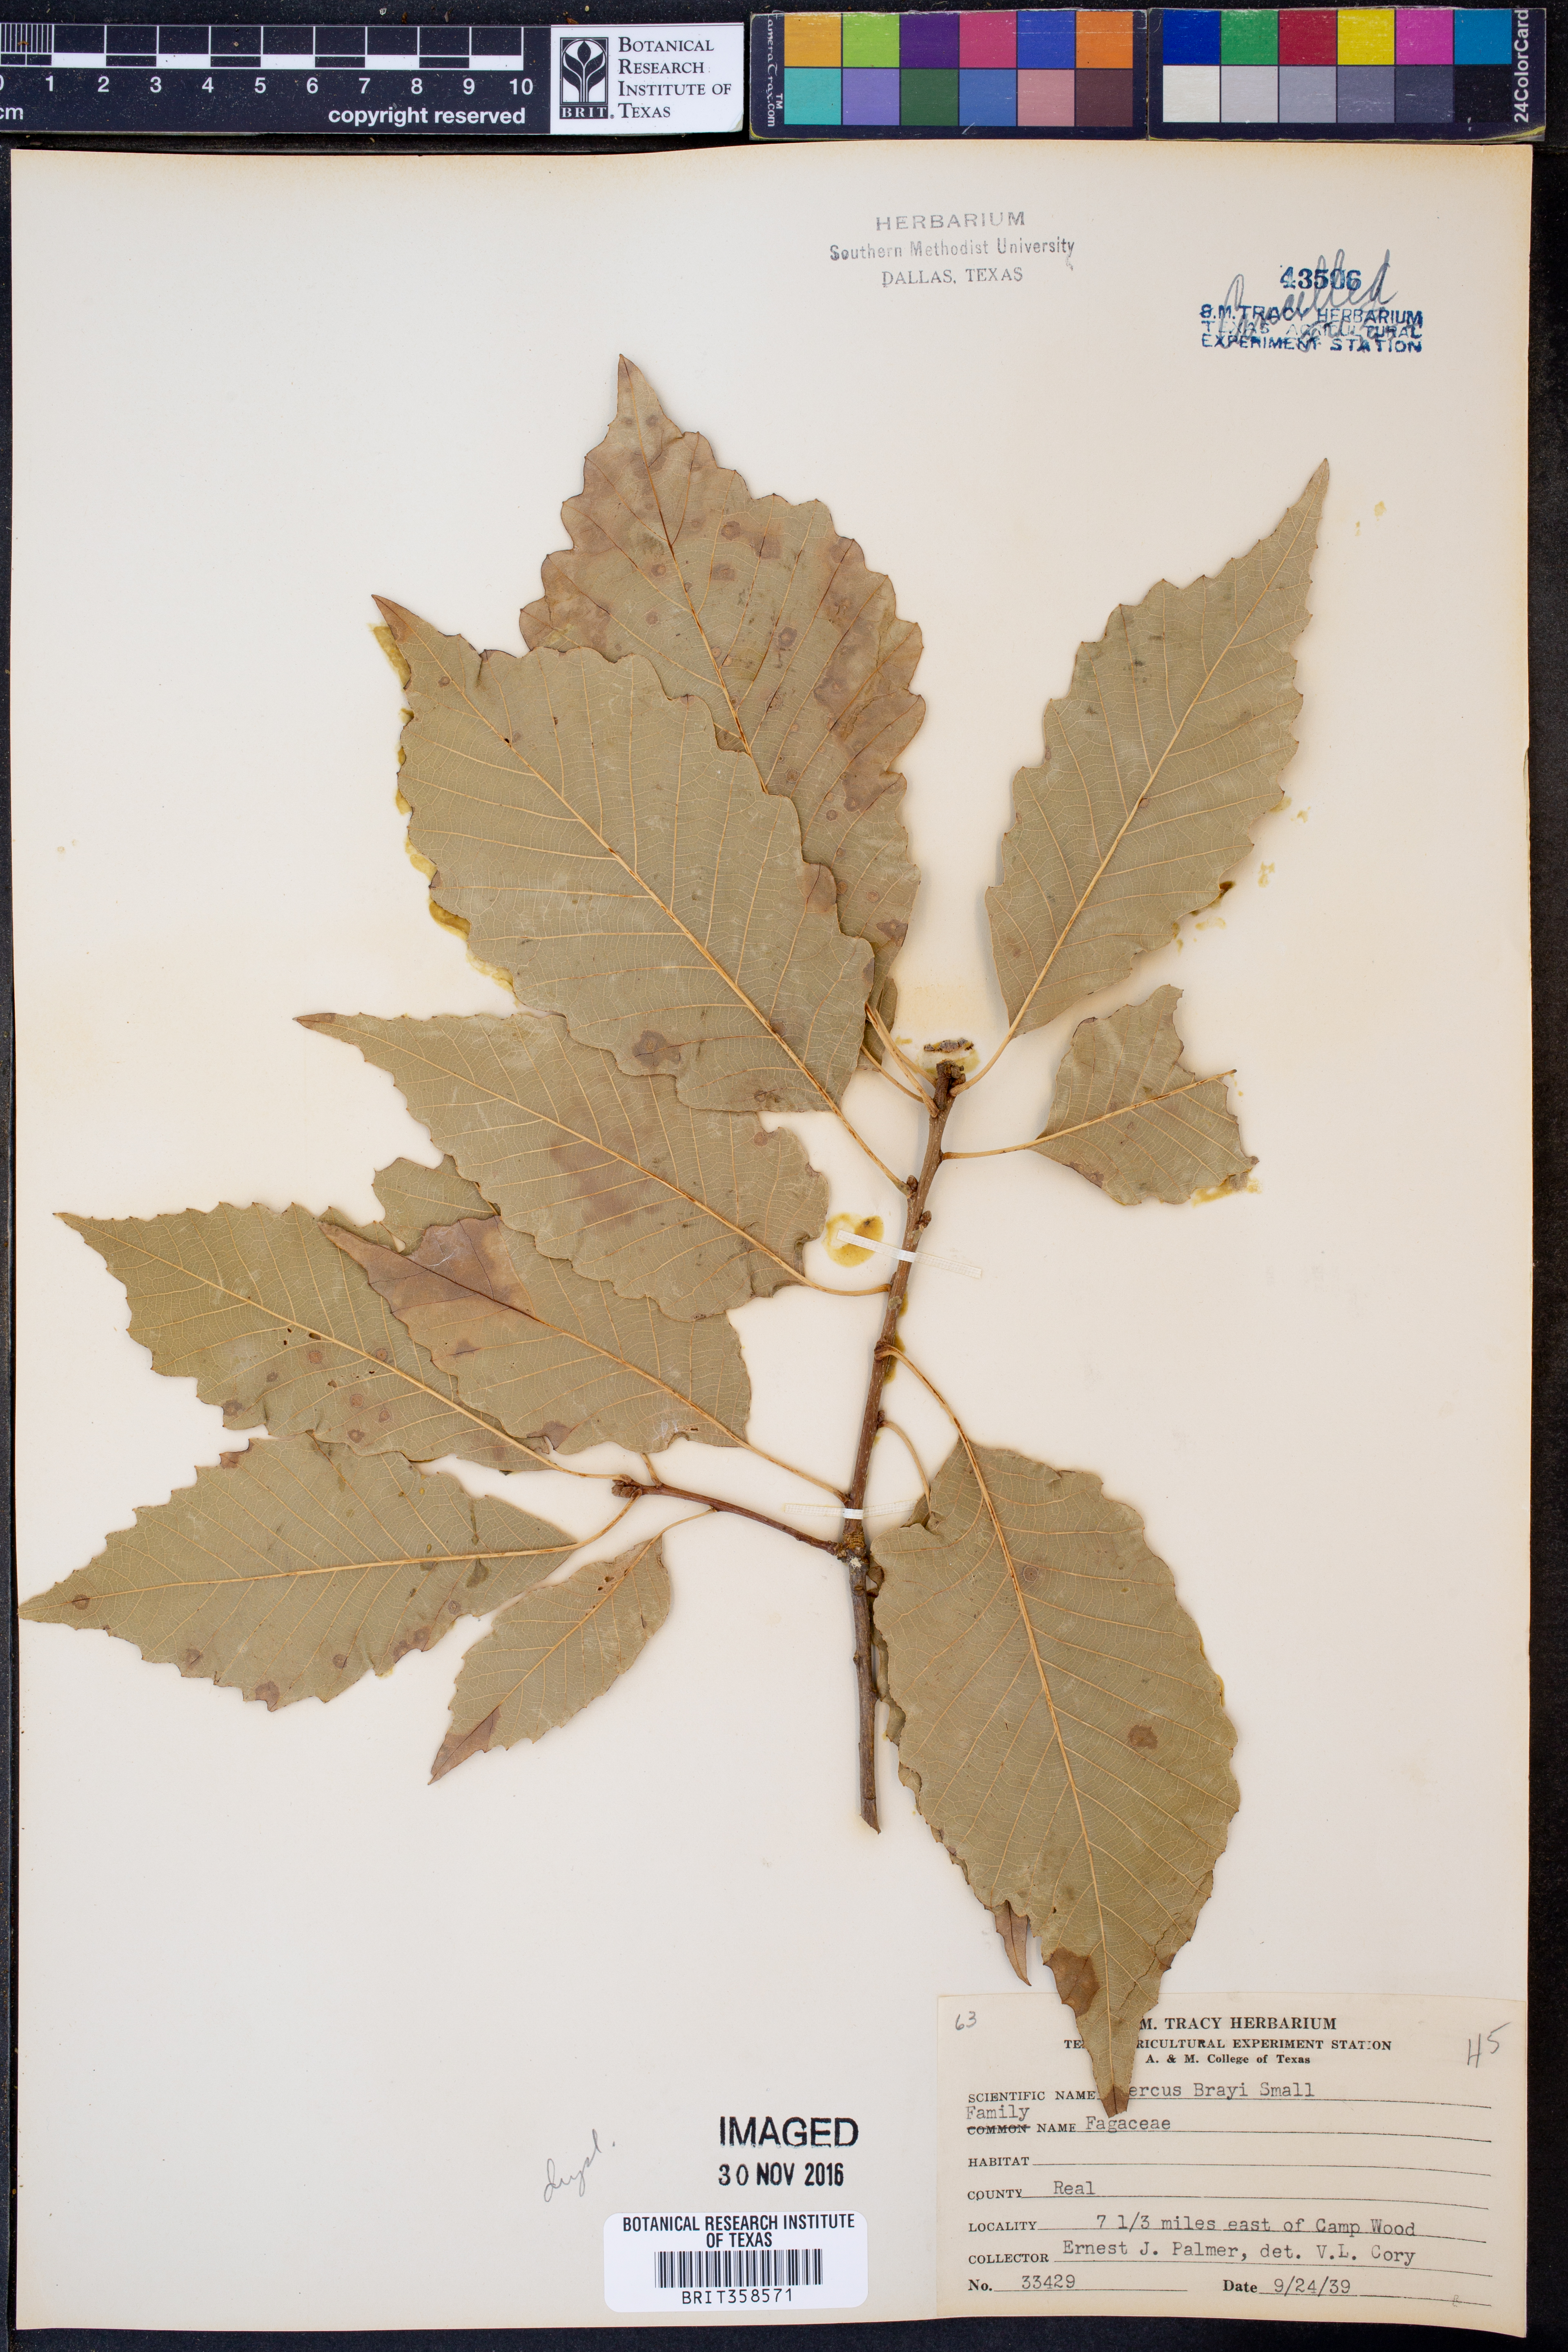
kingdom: Plantae
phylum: Tracheophyta
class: Magnoliopsida
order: Fagales
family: Fagaceae
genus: Quercus
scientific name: Quercus muehlenbergii
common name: Chinkapin oak
